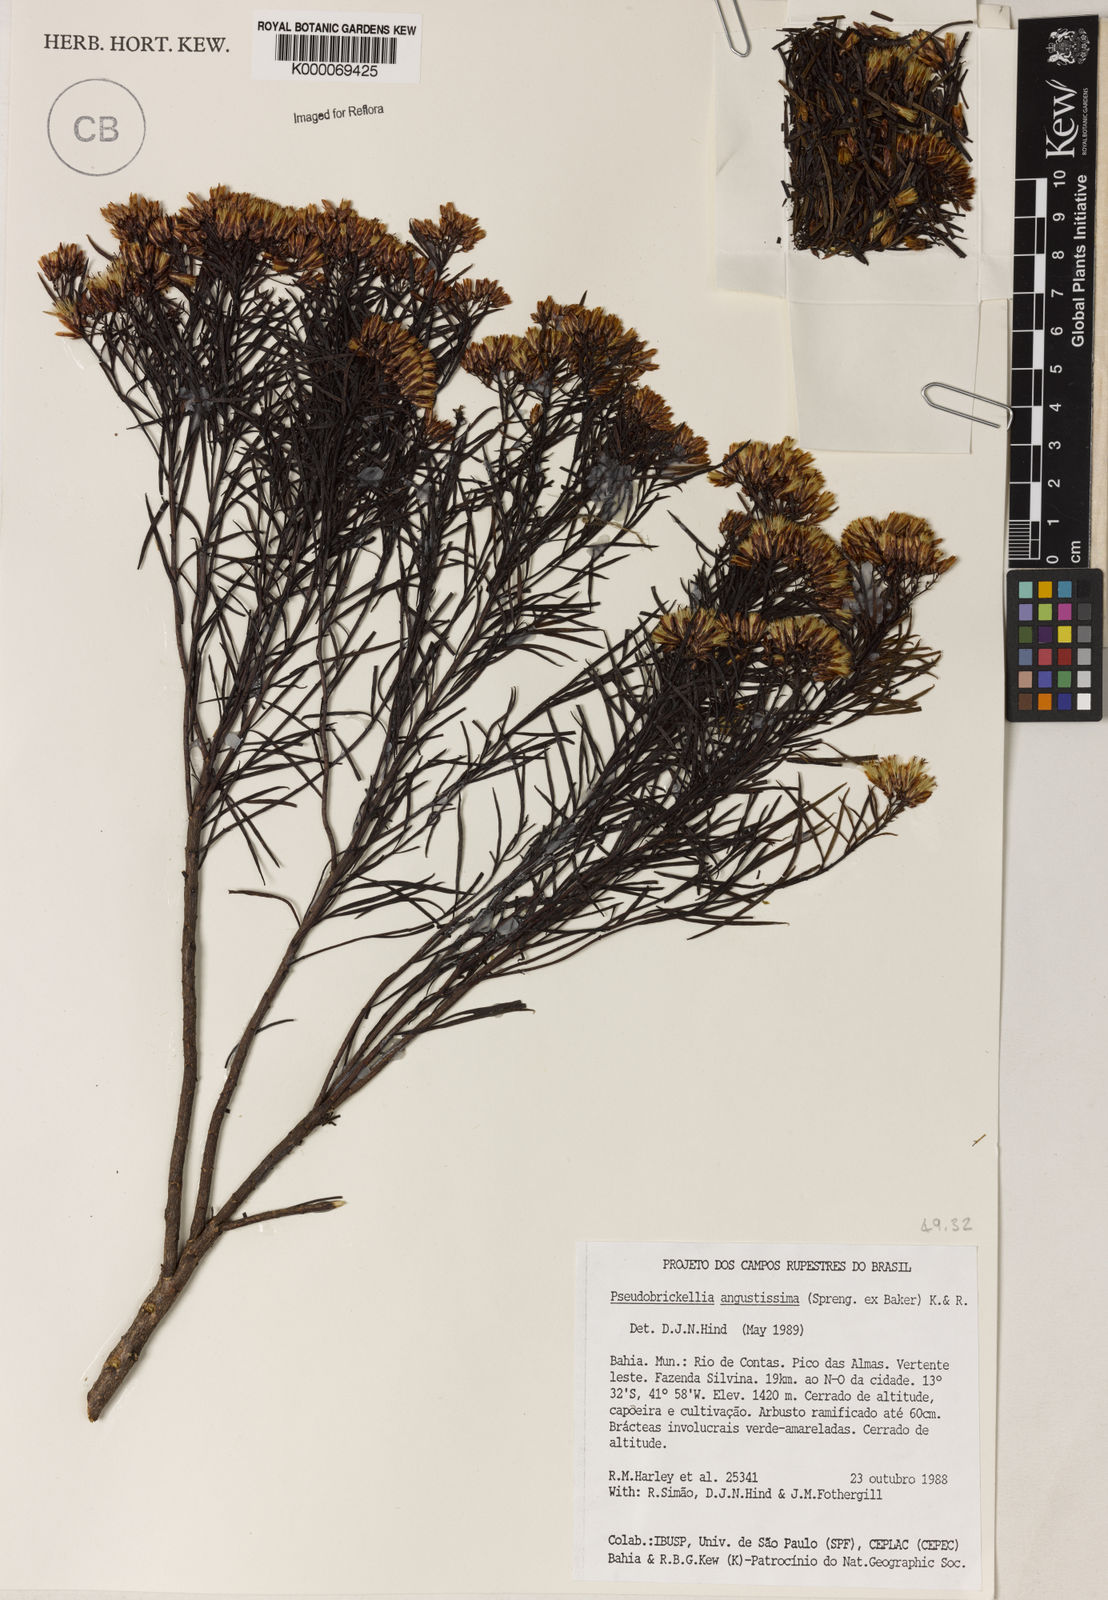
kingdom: Plantae
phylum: Tracheophyta
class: Magnoliopsida
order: Asterales
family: Asteraceae
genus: Pseudobrickellia
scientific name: Pseudobrickellia angustissima
